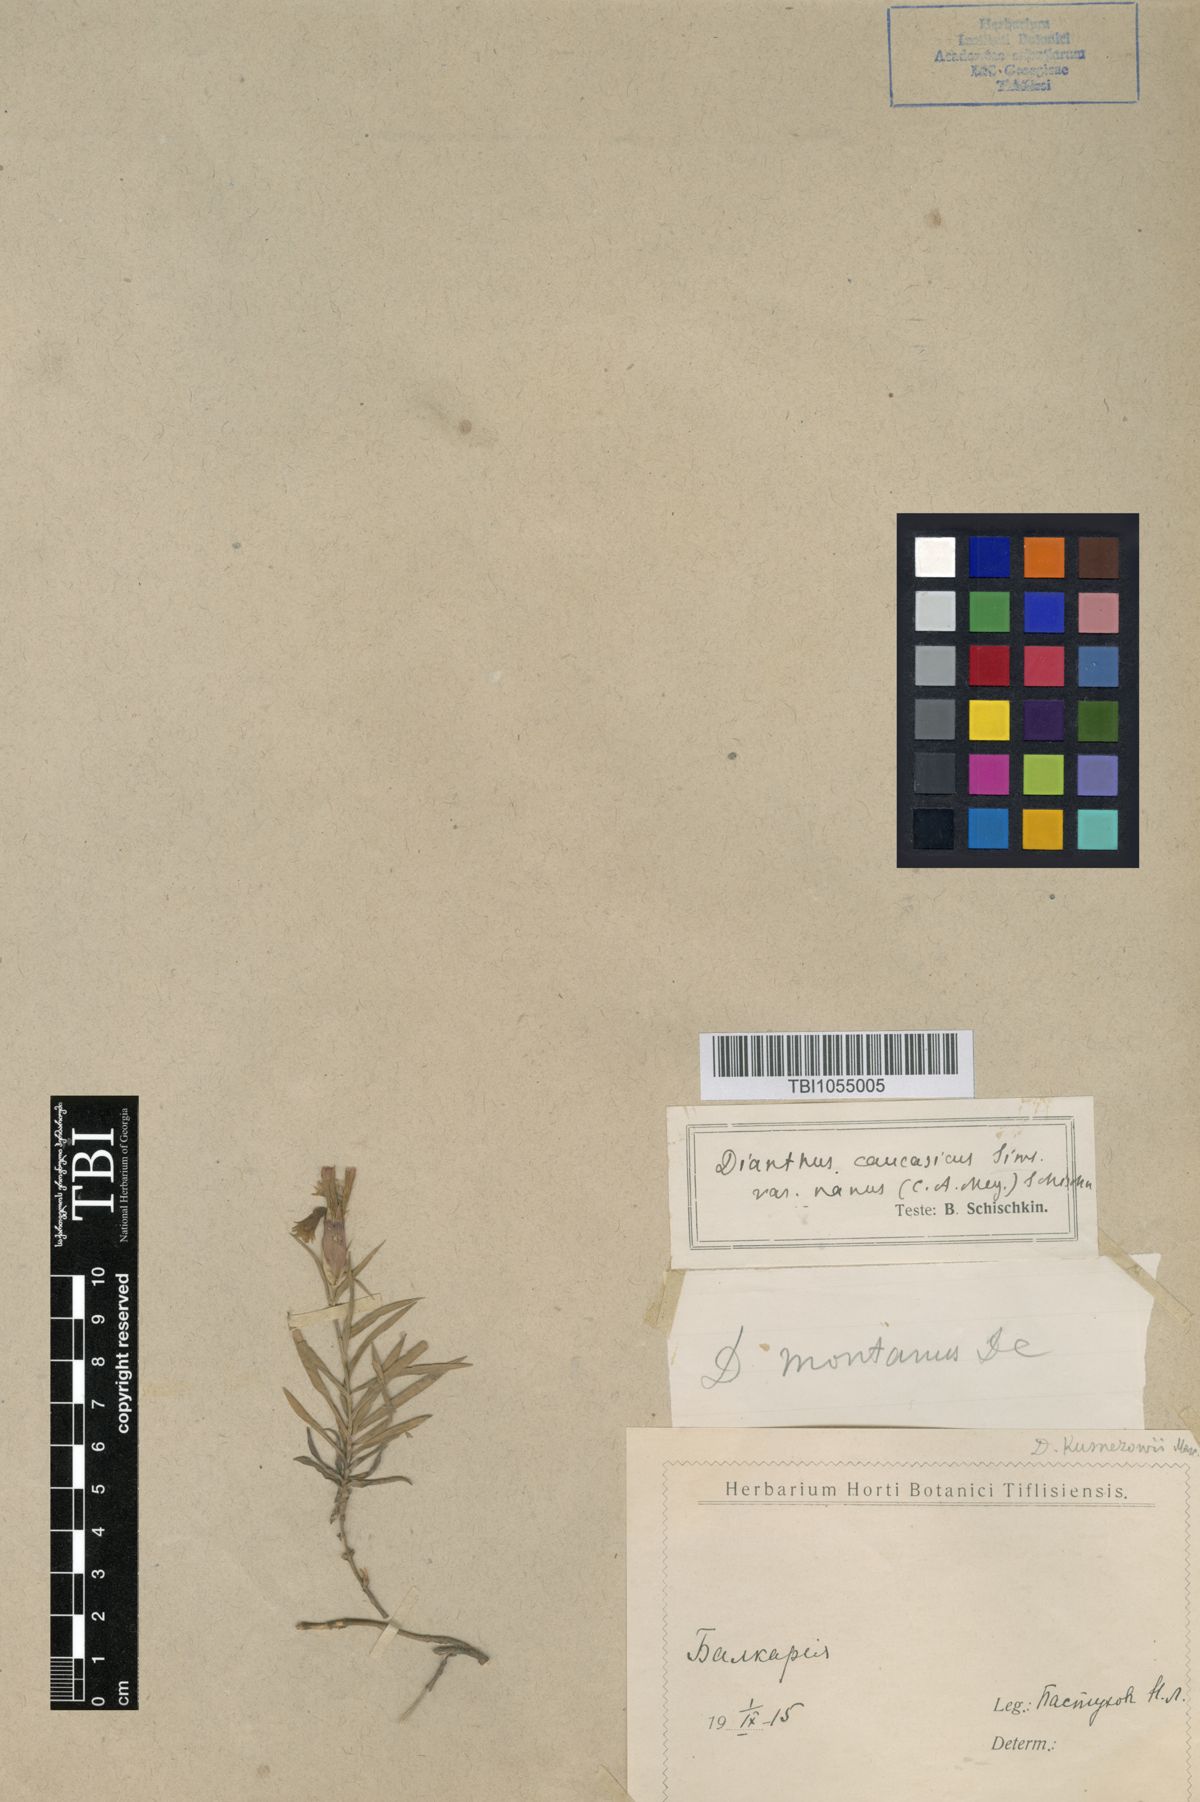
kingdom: Plantae
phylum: Tracheophyta
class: Magnoliopsida
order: Caryophyllales
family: Caryophyllaceae
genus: Dianthus
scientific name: Dianthus caucaseus
